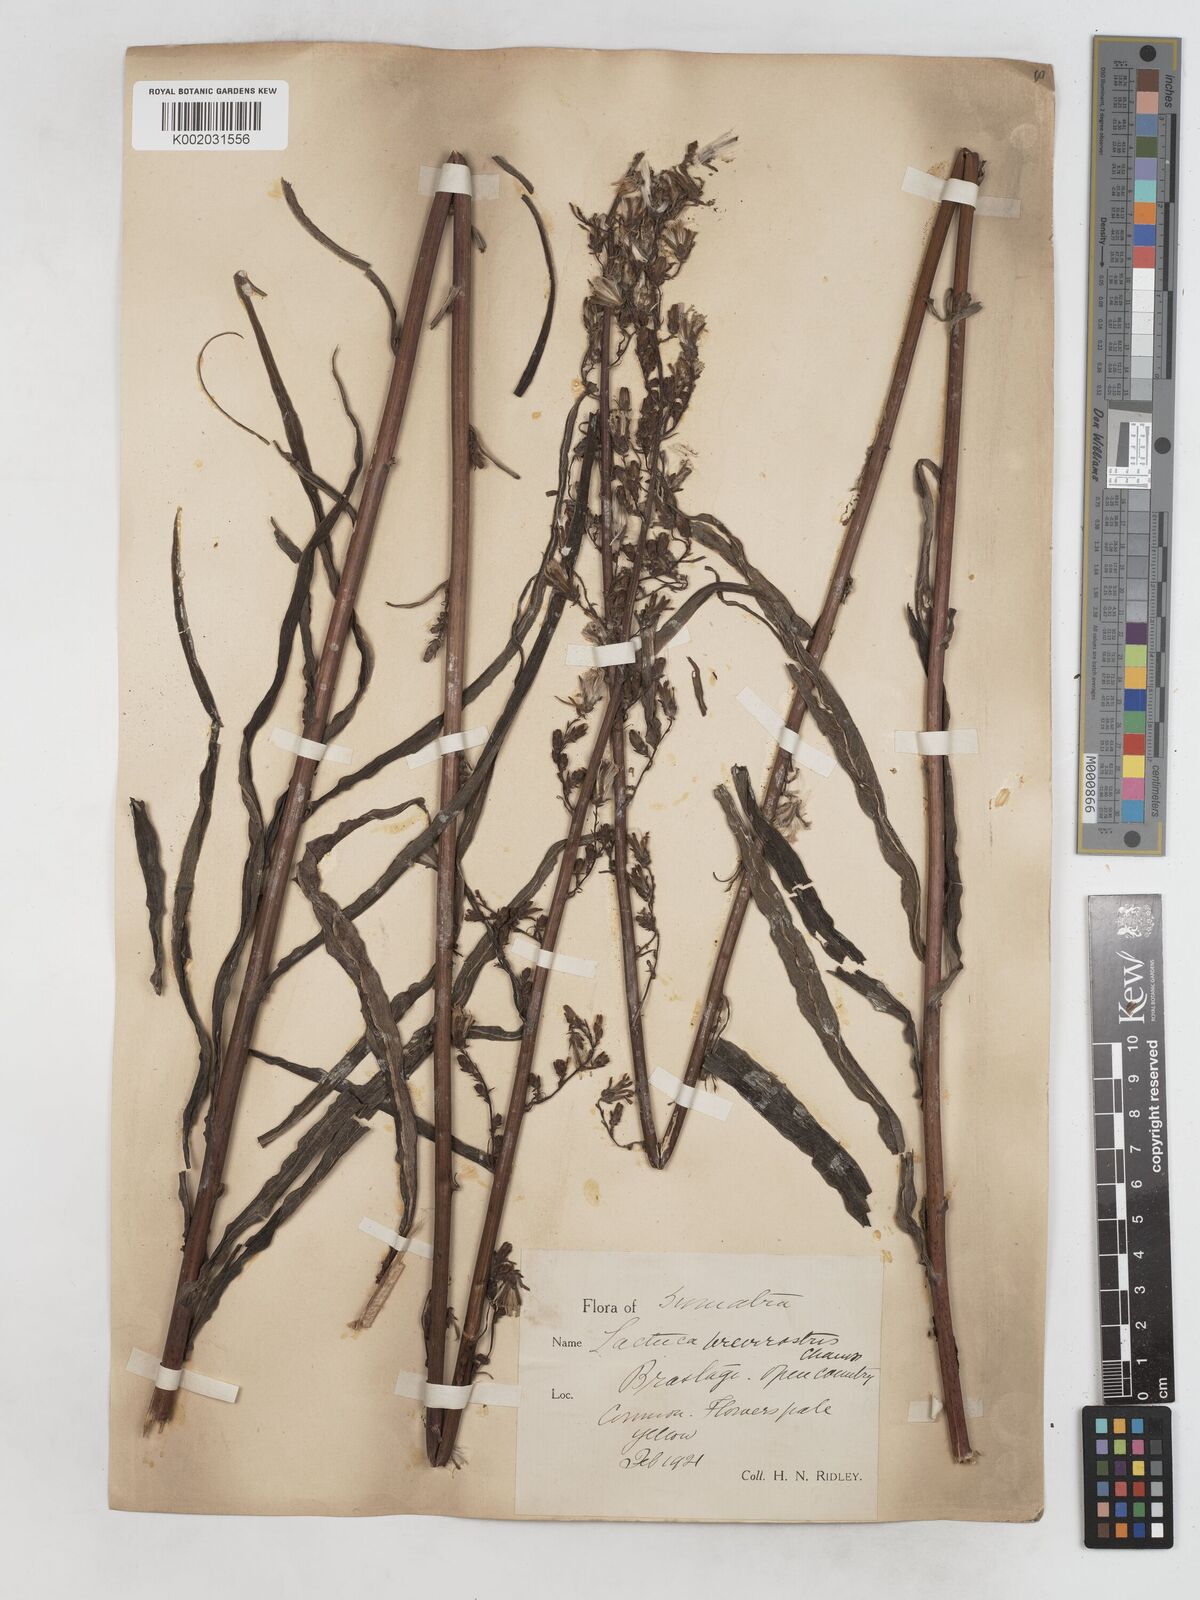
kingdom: Plantae
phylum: Tracheophyta
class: Magnoliopsida
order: Asterales
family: Asteraceae
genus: Lactuca
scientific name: Lactuca indica
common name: Wild lettuce
